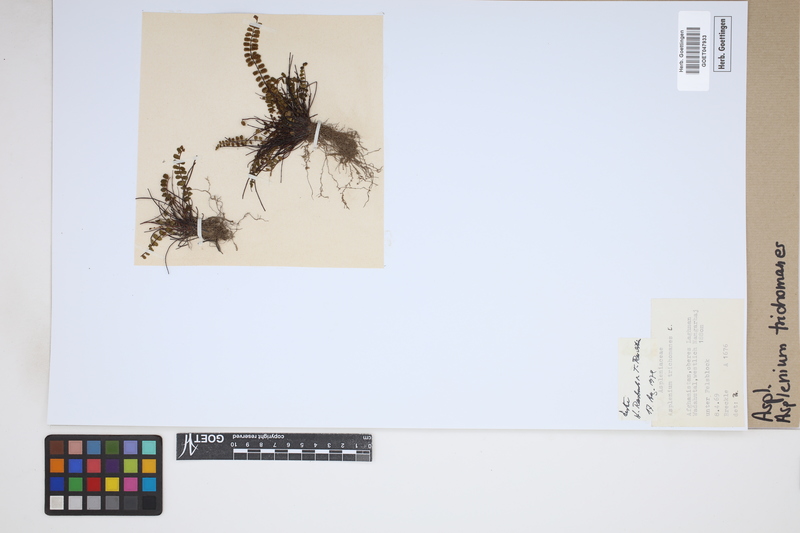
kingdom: Plantae
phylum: Tracheophyta
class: Polypodiopsida
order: Polypodiales
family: Aspleniaceae
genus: Asplenium
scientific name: Asplenium trichomanes
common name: Maidenhair spleenwort
